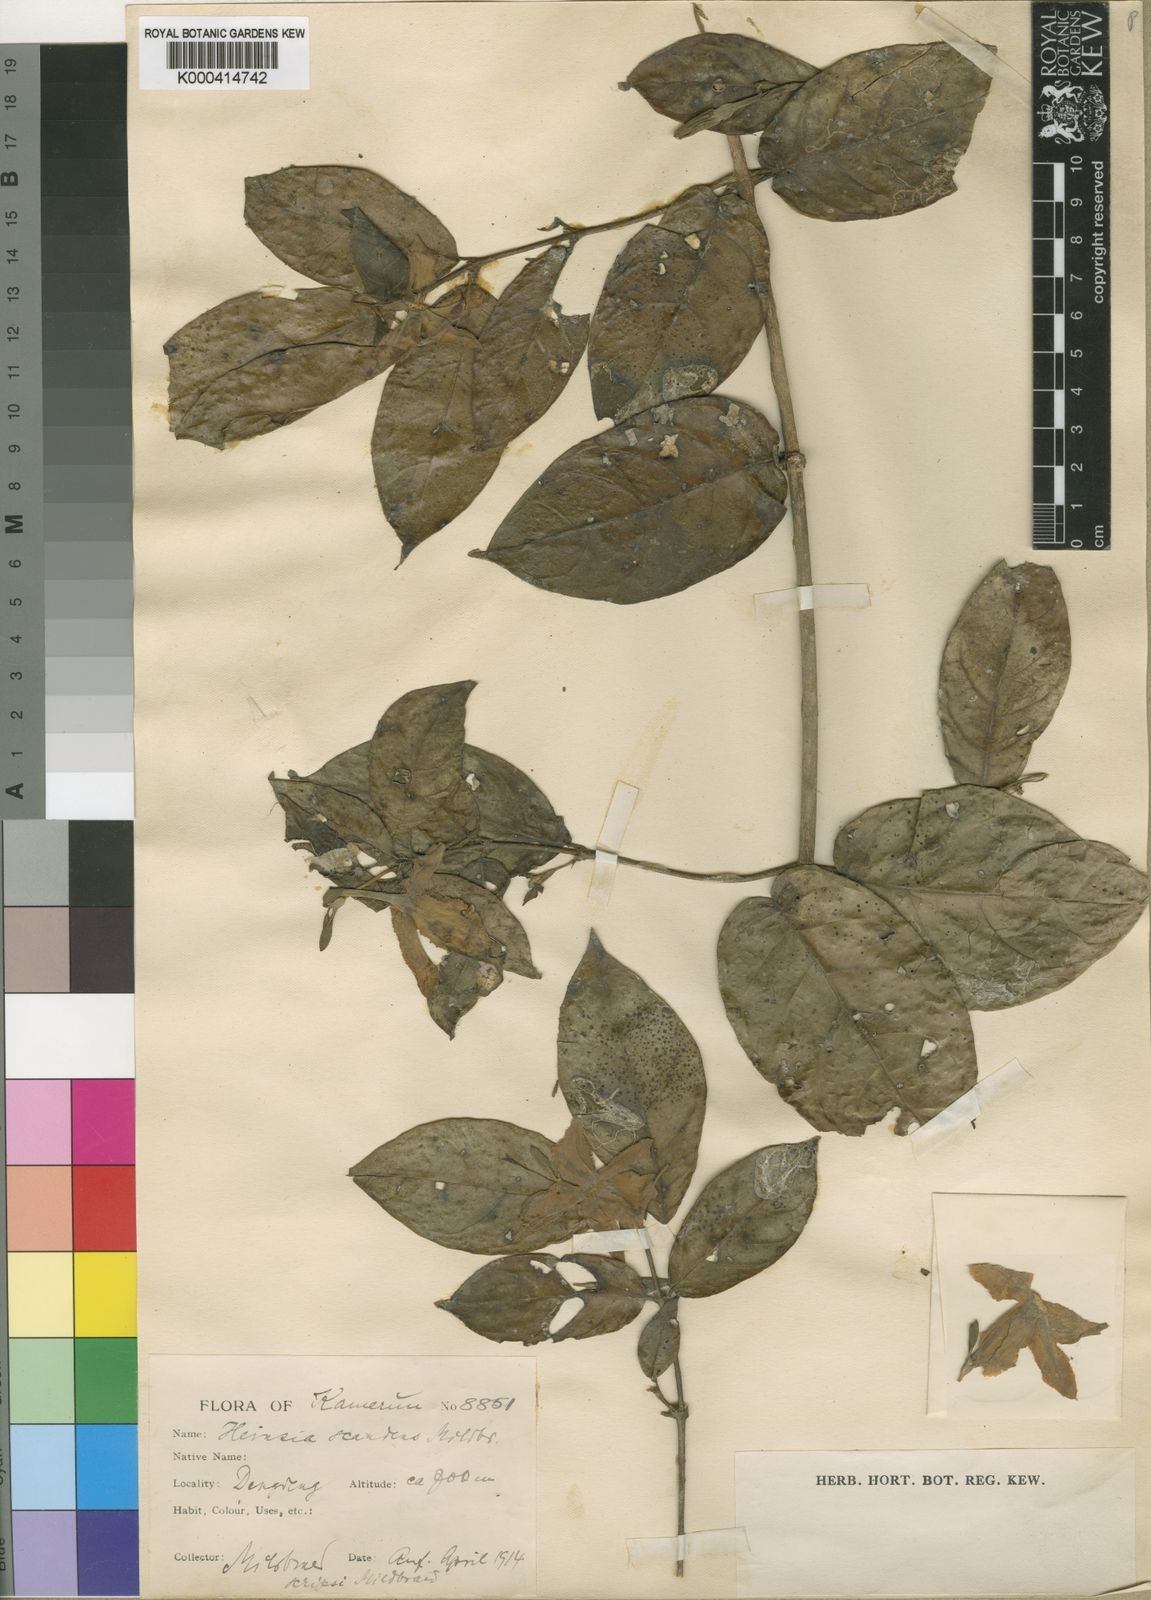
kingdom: Plantae
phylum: Tracheophyta
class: Magnoliopsida
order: Gentianales
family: Rubiaceae
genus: Heinsia
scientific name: Heinsia crinita
